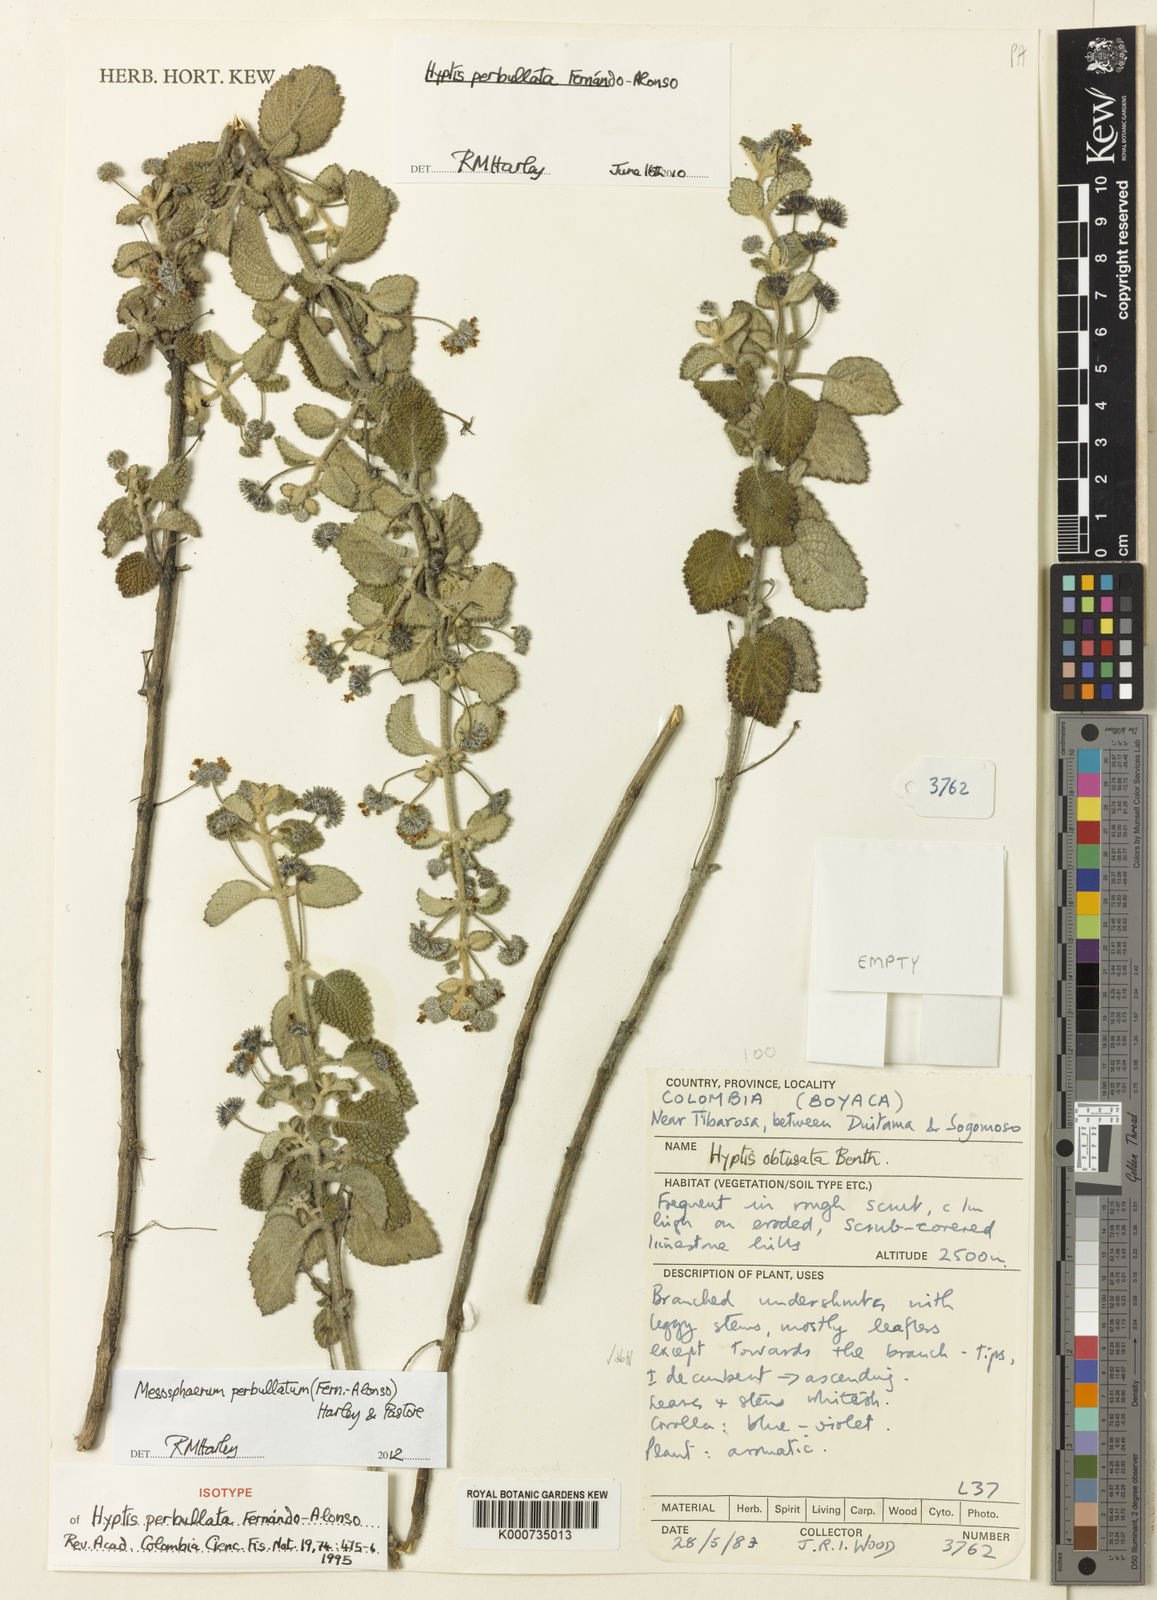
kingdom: Plantae
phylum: Tracheophyta
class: Magnoliopsida
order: Lamiales
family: Lamiaceae
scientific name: Lamiaceae
